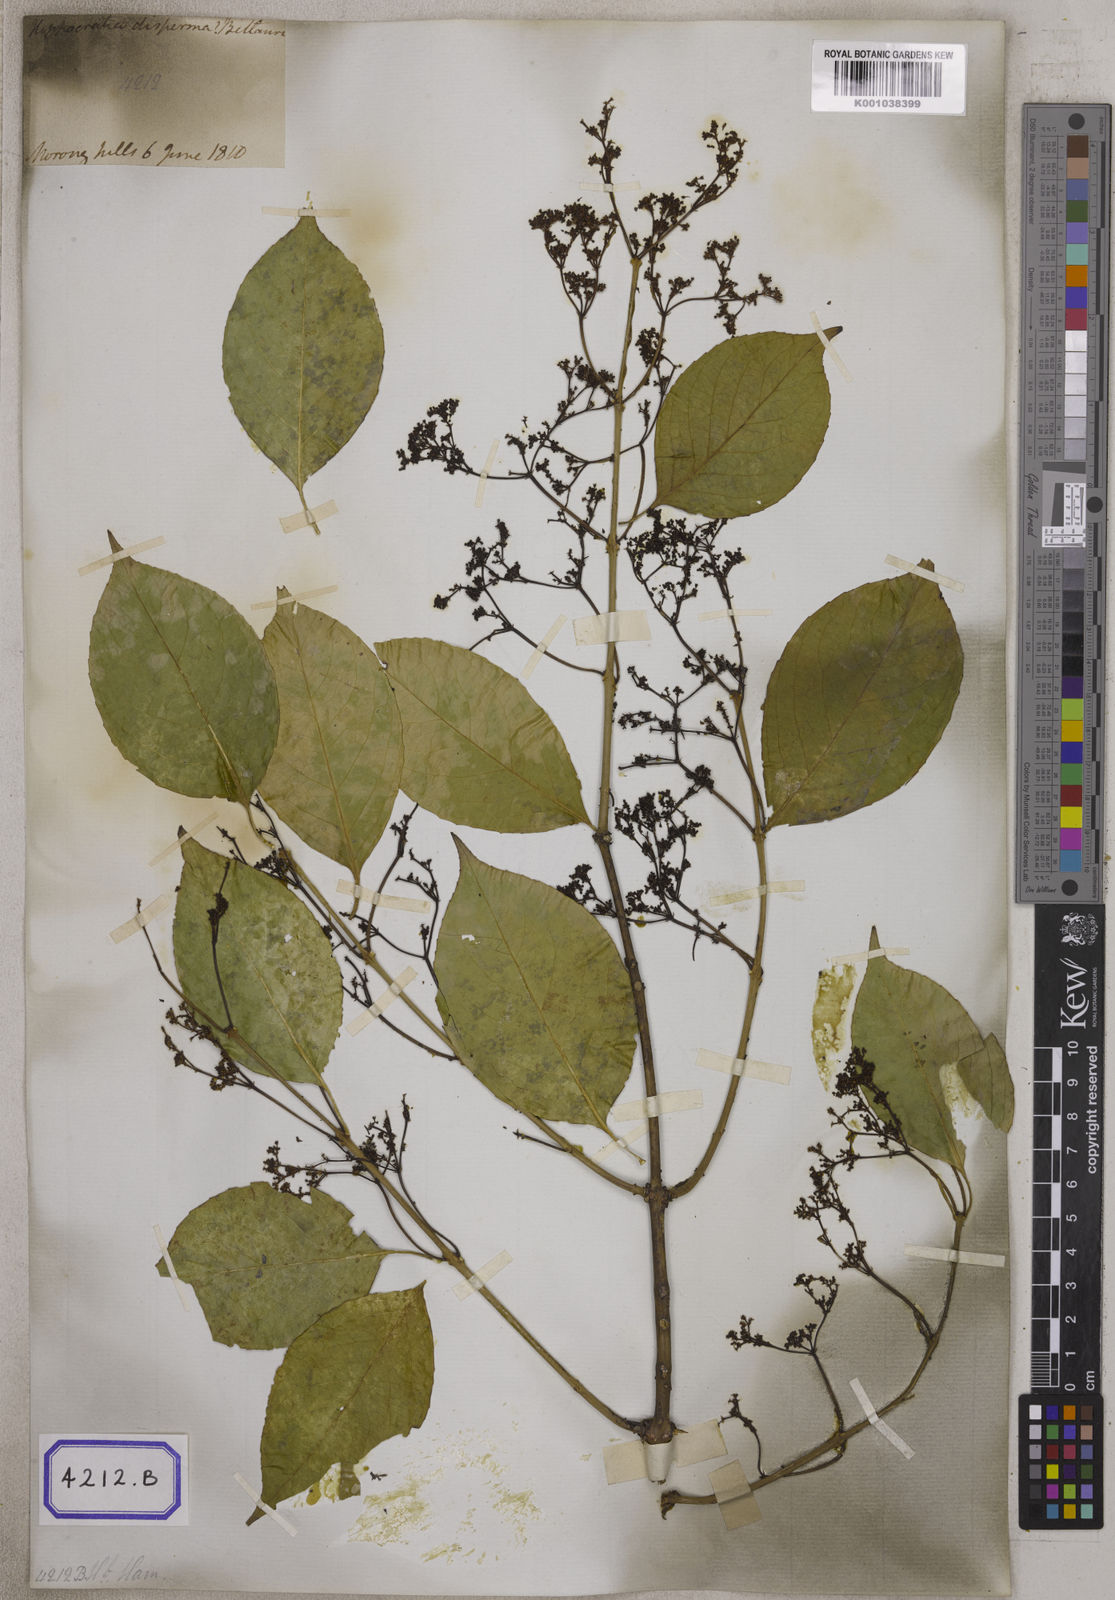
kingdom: Plantae
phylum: Tracheophyta
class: Magnoliopsida
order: Celastrales
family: Celastraceae
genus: Reissantia
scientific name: Reissantia arborea
